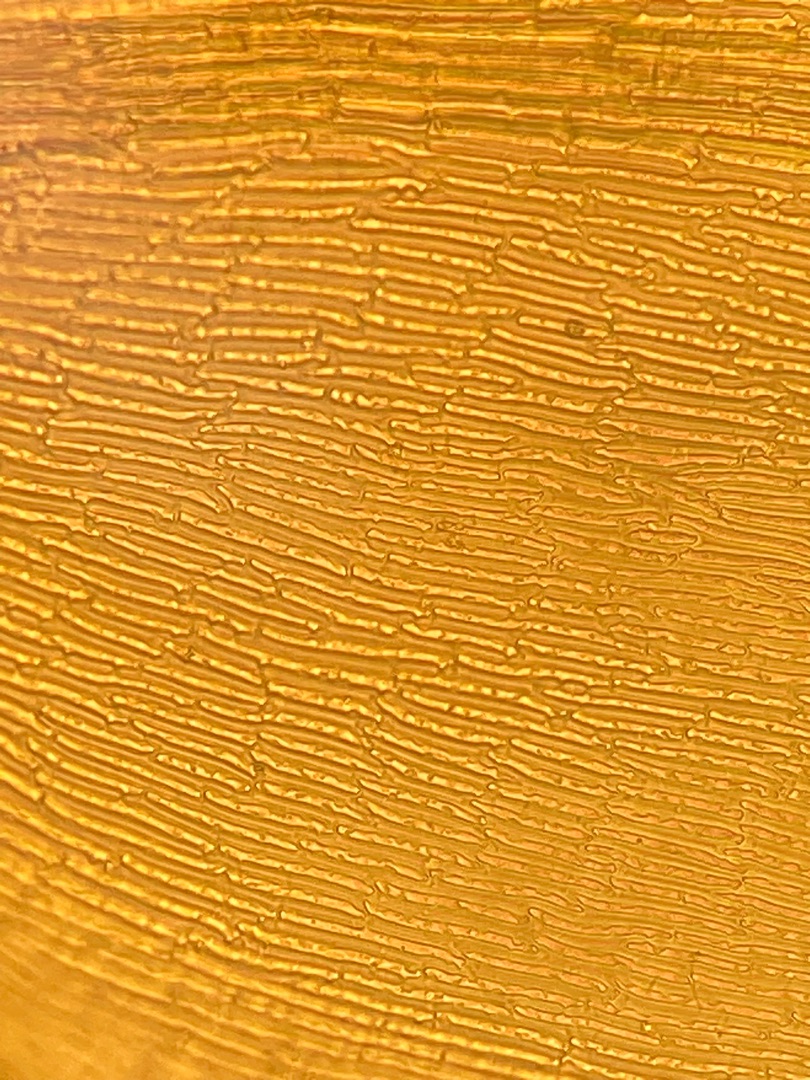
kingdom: Plantae
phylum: Bryophyta
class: Bryopsida
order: Hypnales
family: Scorpidiaceae
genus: Scorpidium
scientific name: Scorpidium cossonii
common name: Grøn krumblad
